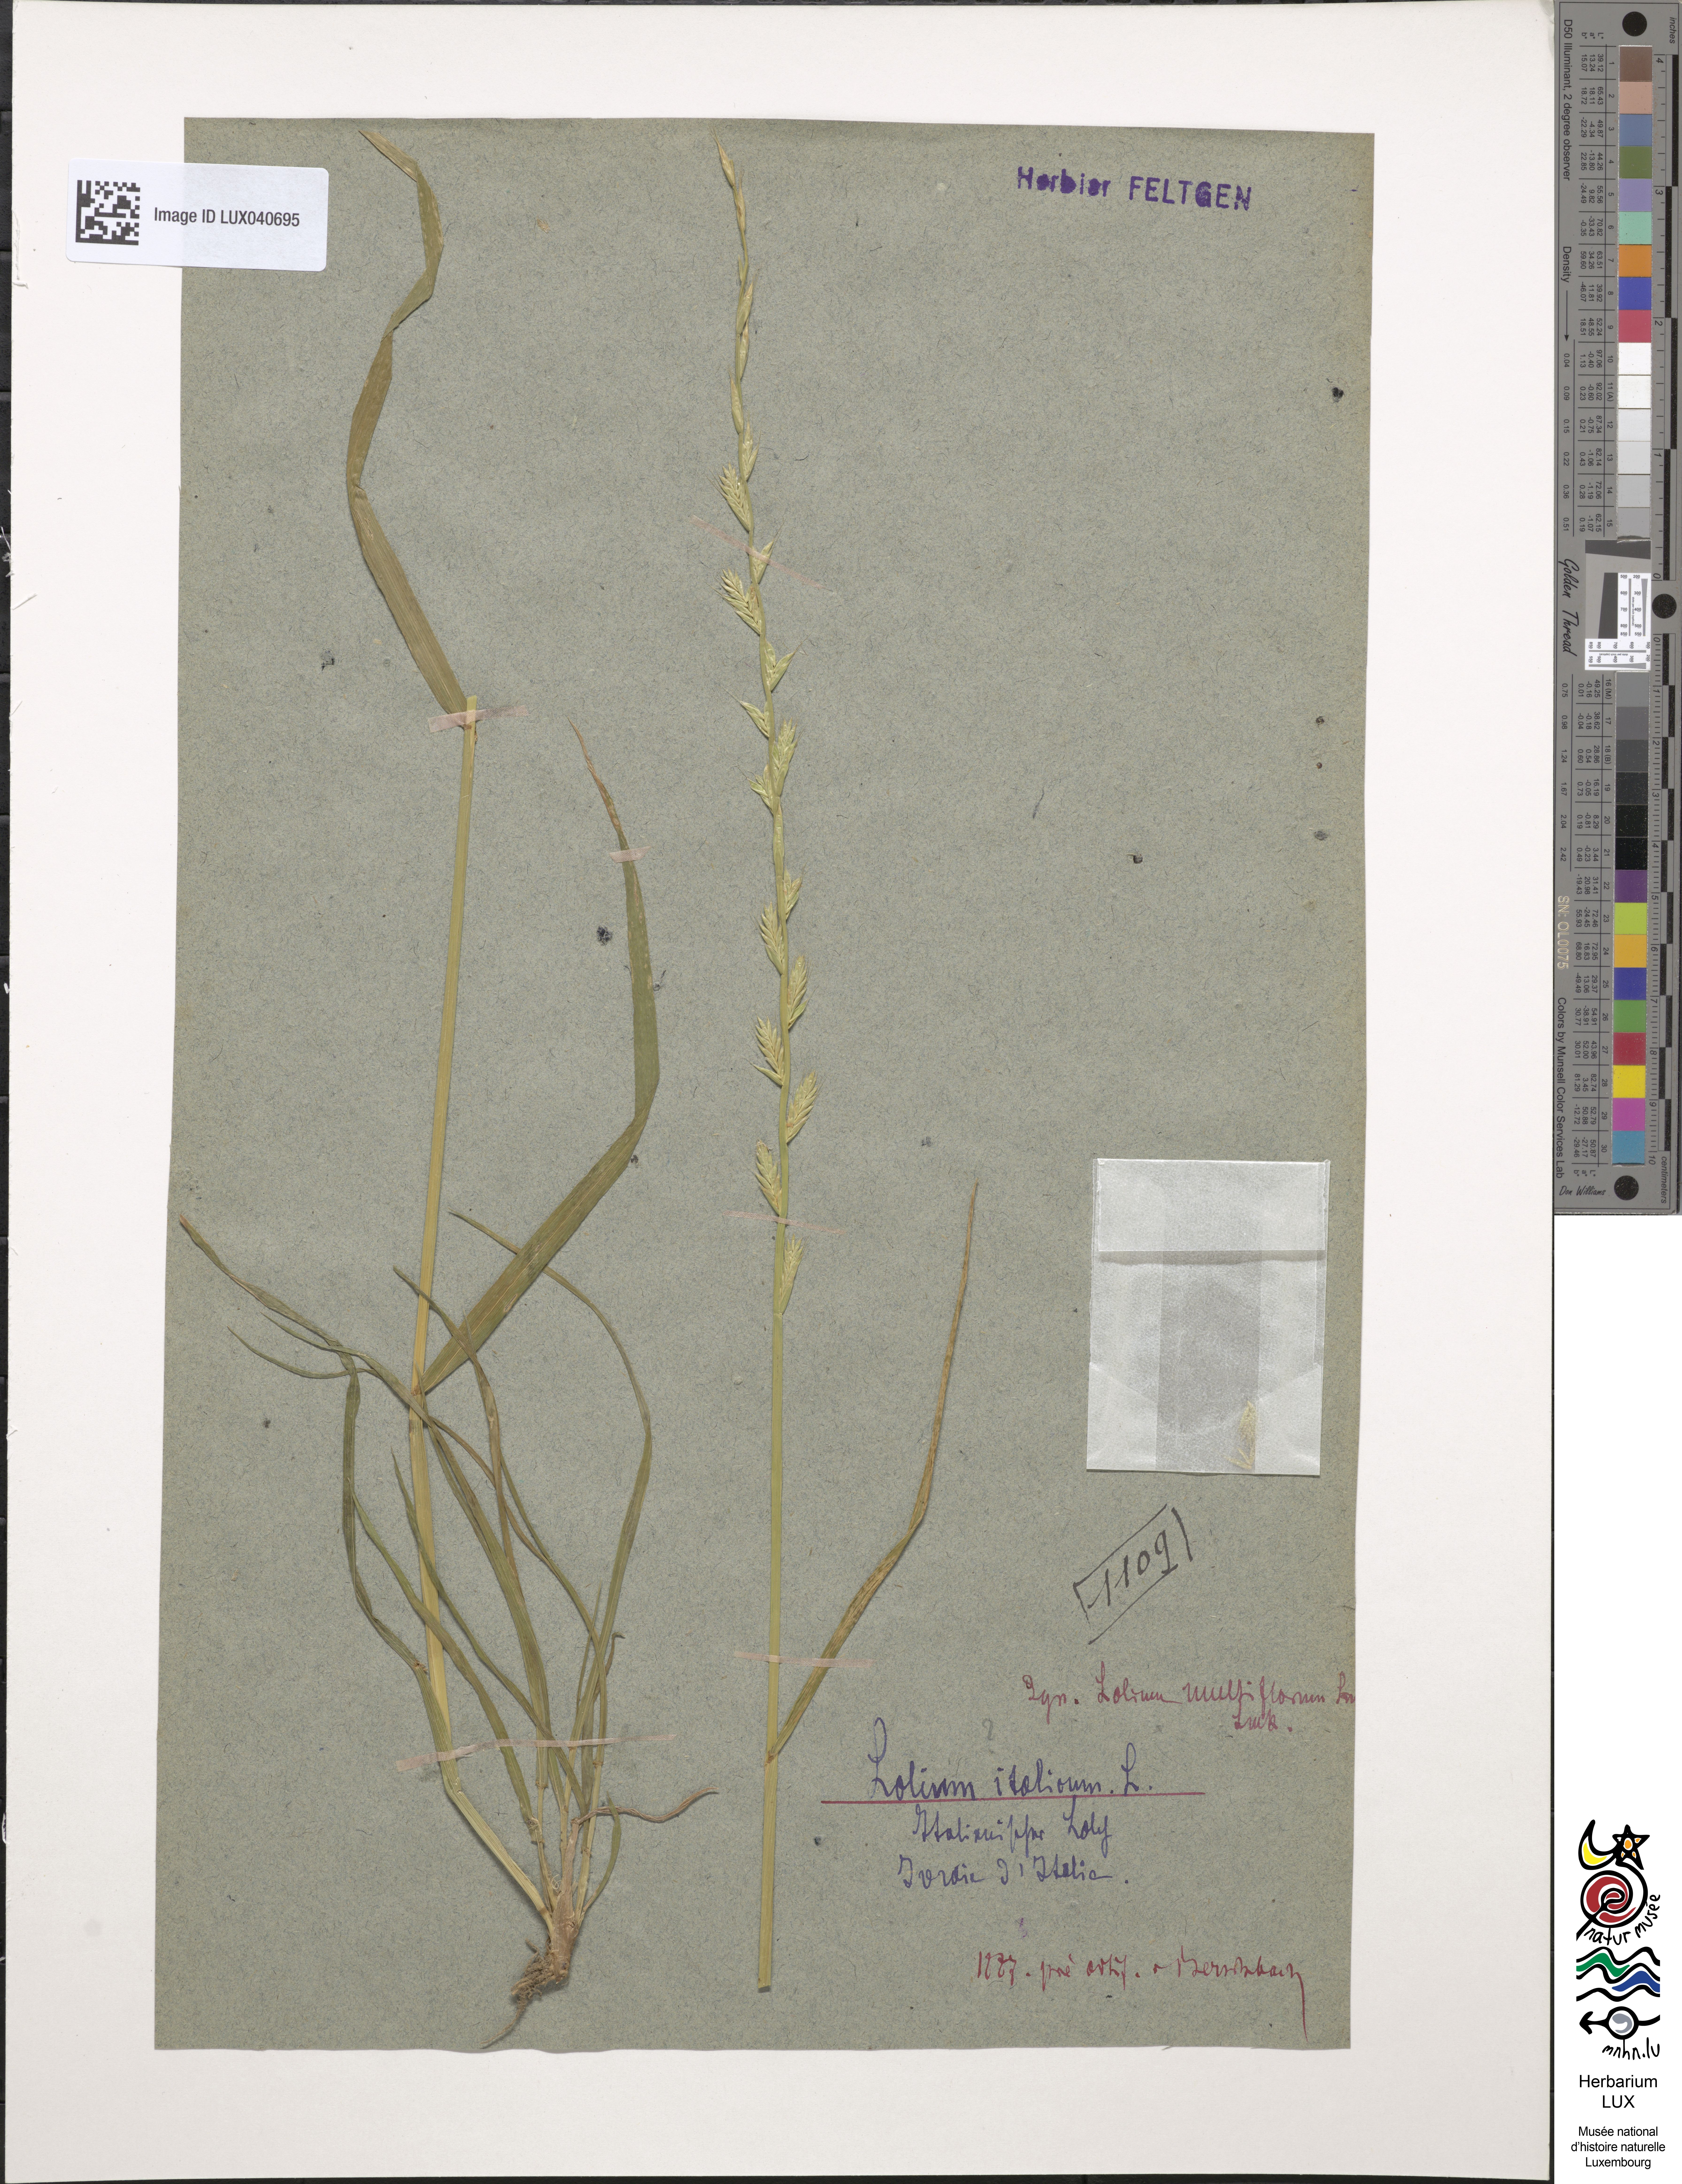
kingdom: Plantae
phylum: Tracheophyta
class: Liliopsida
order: Poales
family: Poaceae
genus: Lolium
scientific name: Lolium multiflorum
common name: Annual ryegrass
